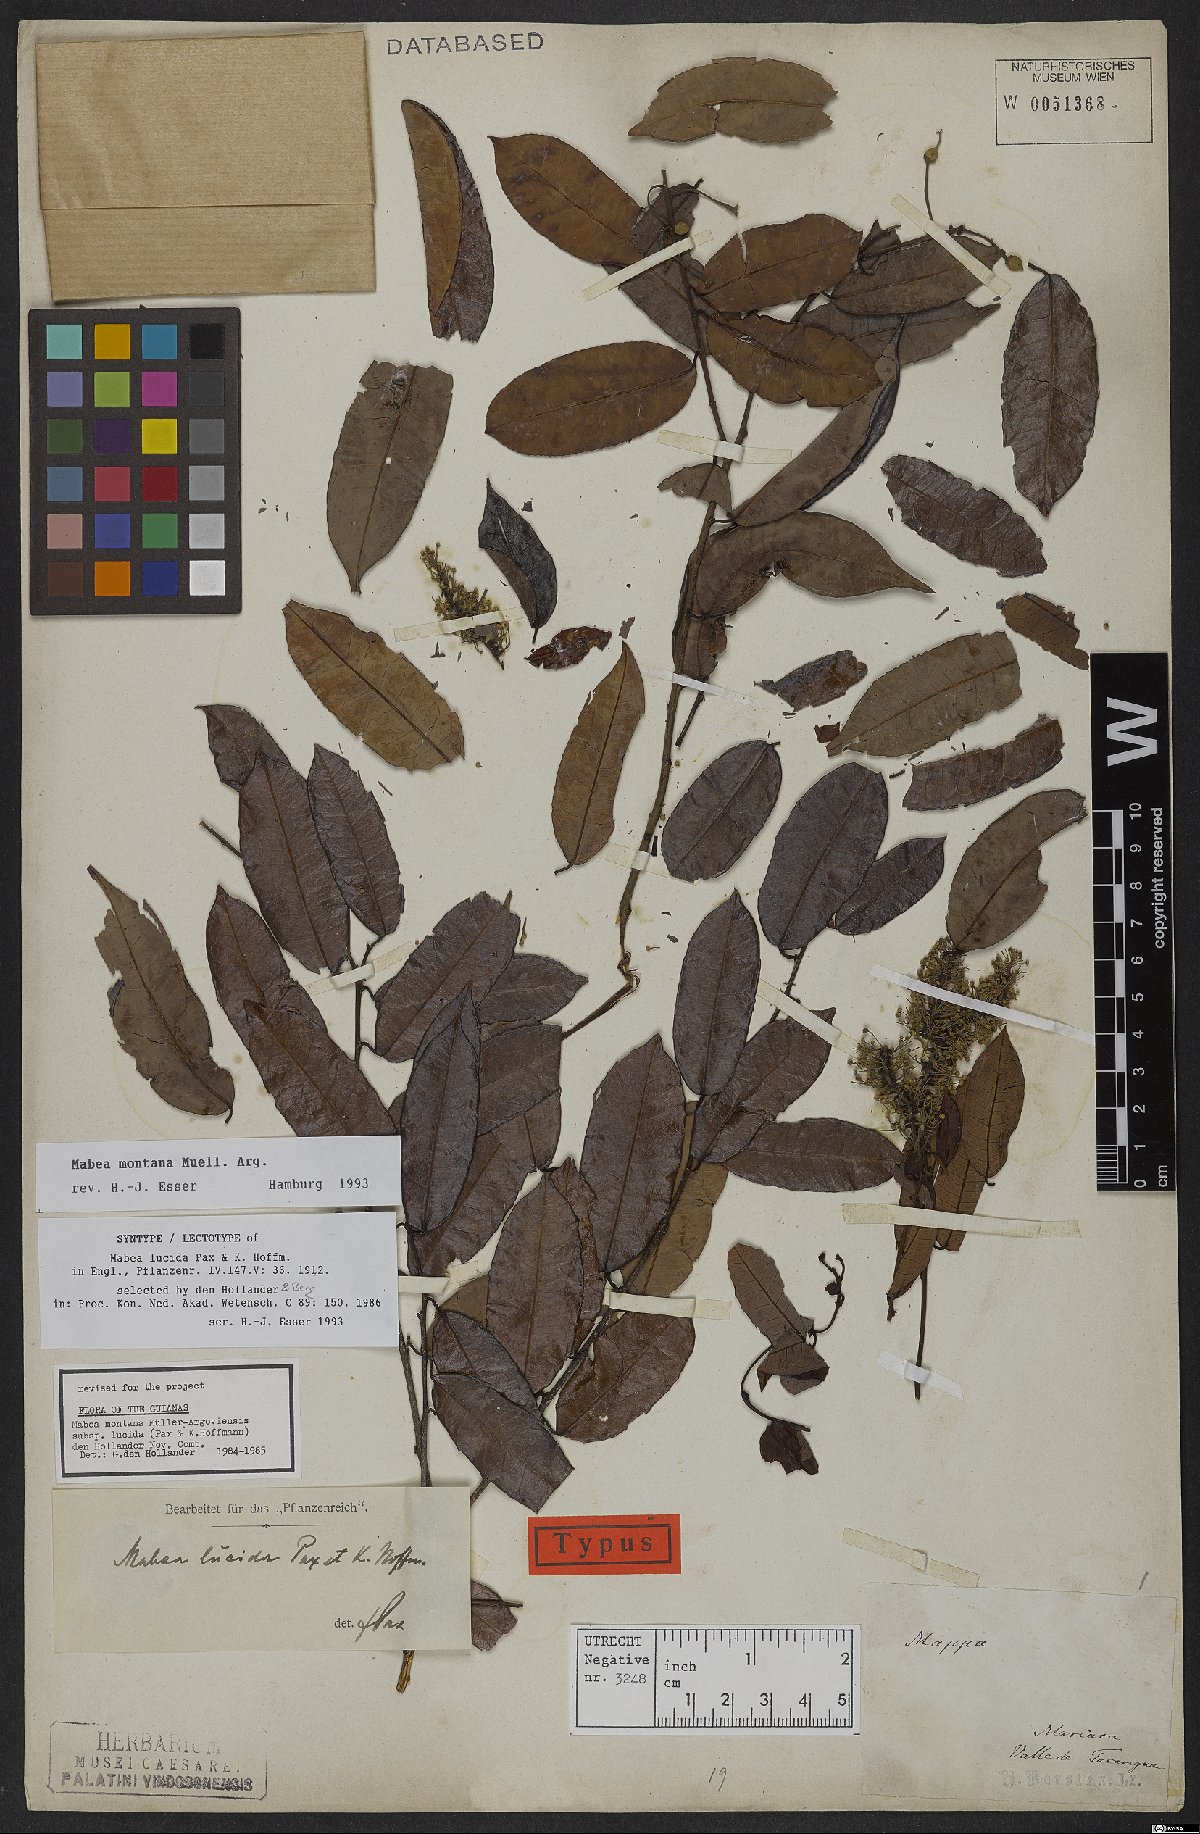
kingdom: Plantae
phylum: Tracheophyta
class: Magnoliopsida
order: Malpighiales
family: Euphorbiaceae
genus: Mabea
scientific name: Mabea montana
